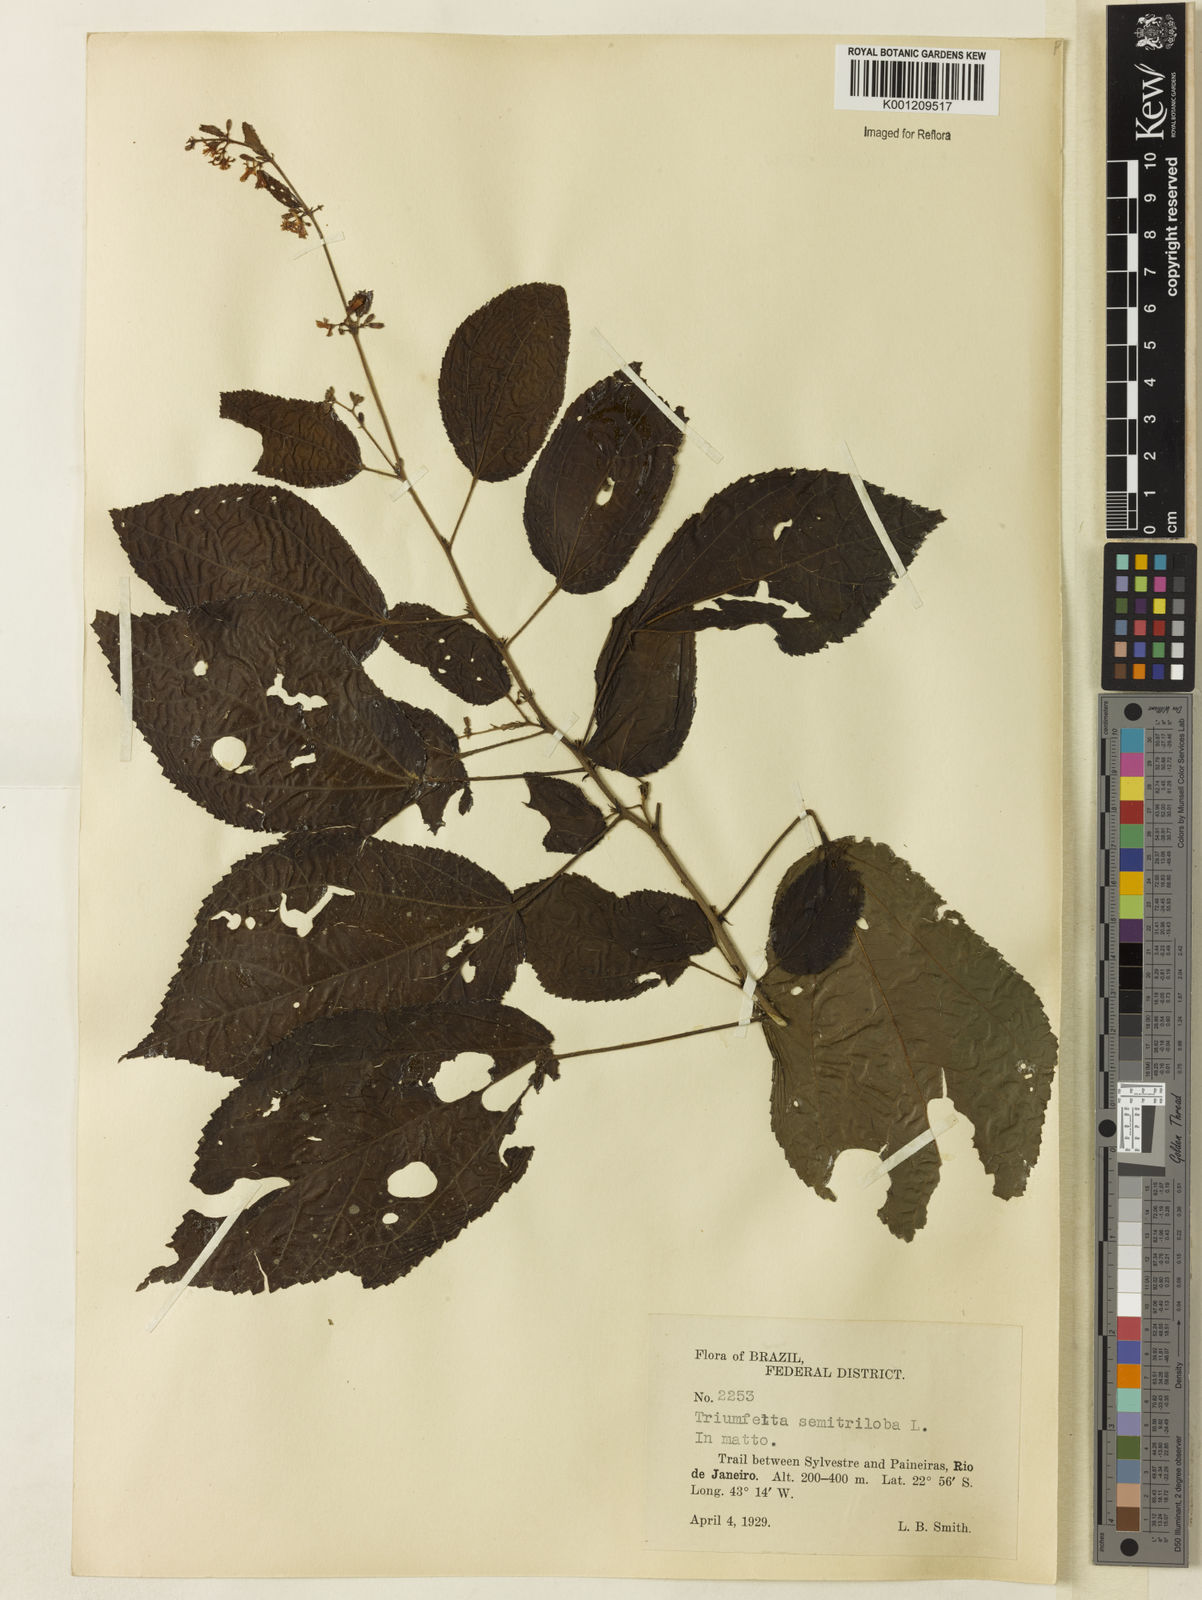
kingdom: Plantae
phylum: Tracheophyta
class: Magnoliopsida
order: Malvales
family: Malvaceae
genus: Triumfetta
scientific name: Triumfetta semitriloba
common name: Sacramento burbark
